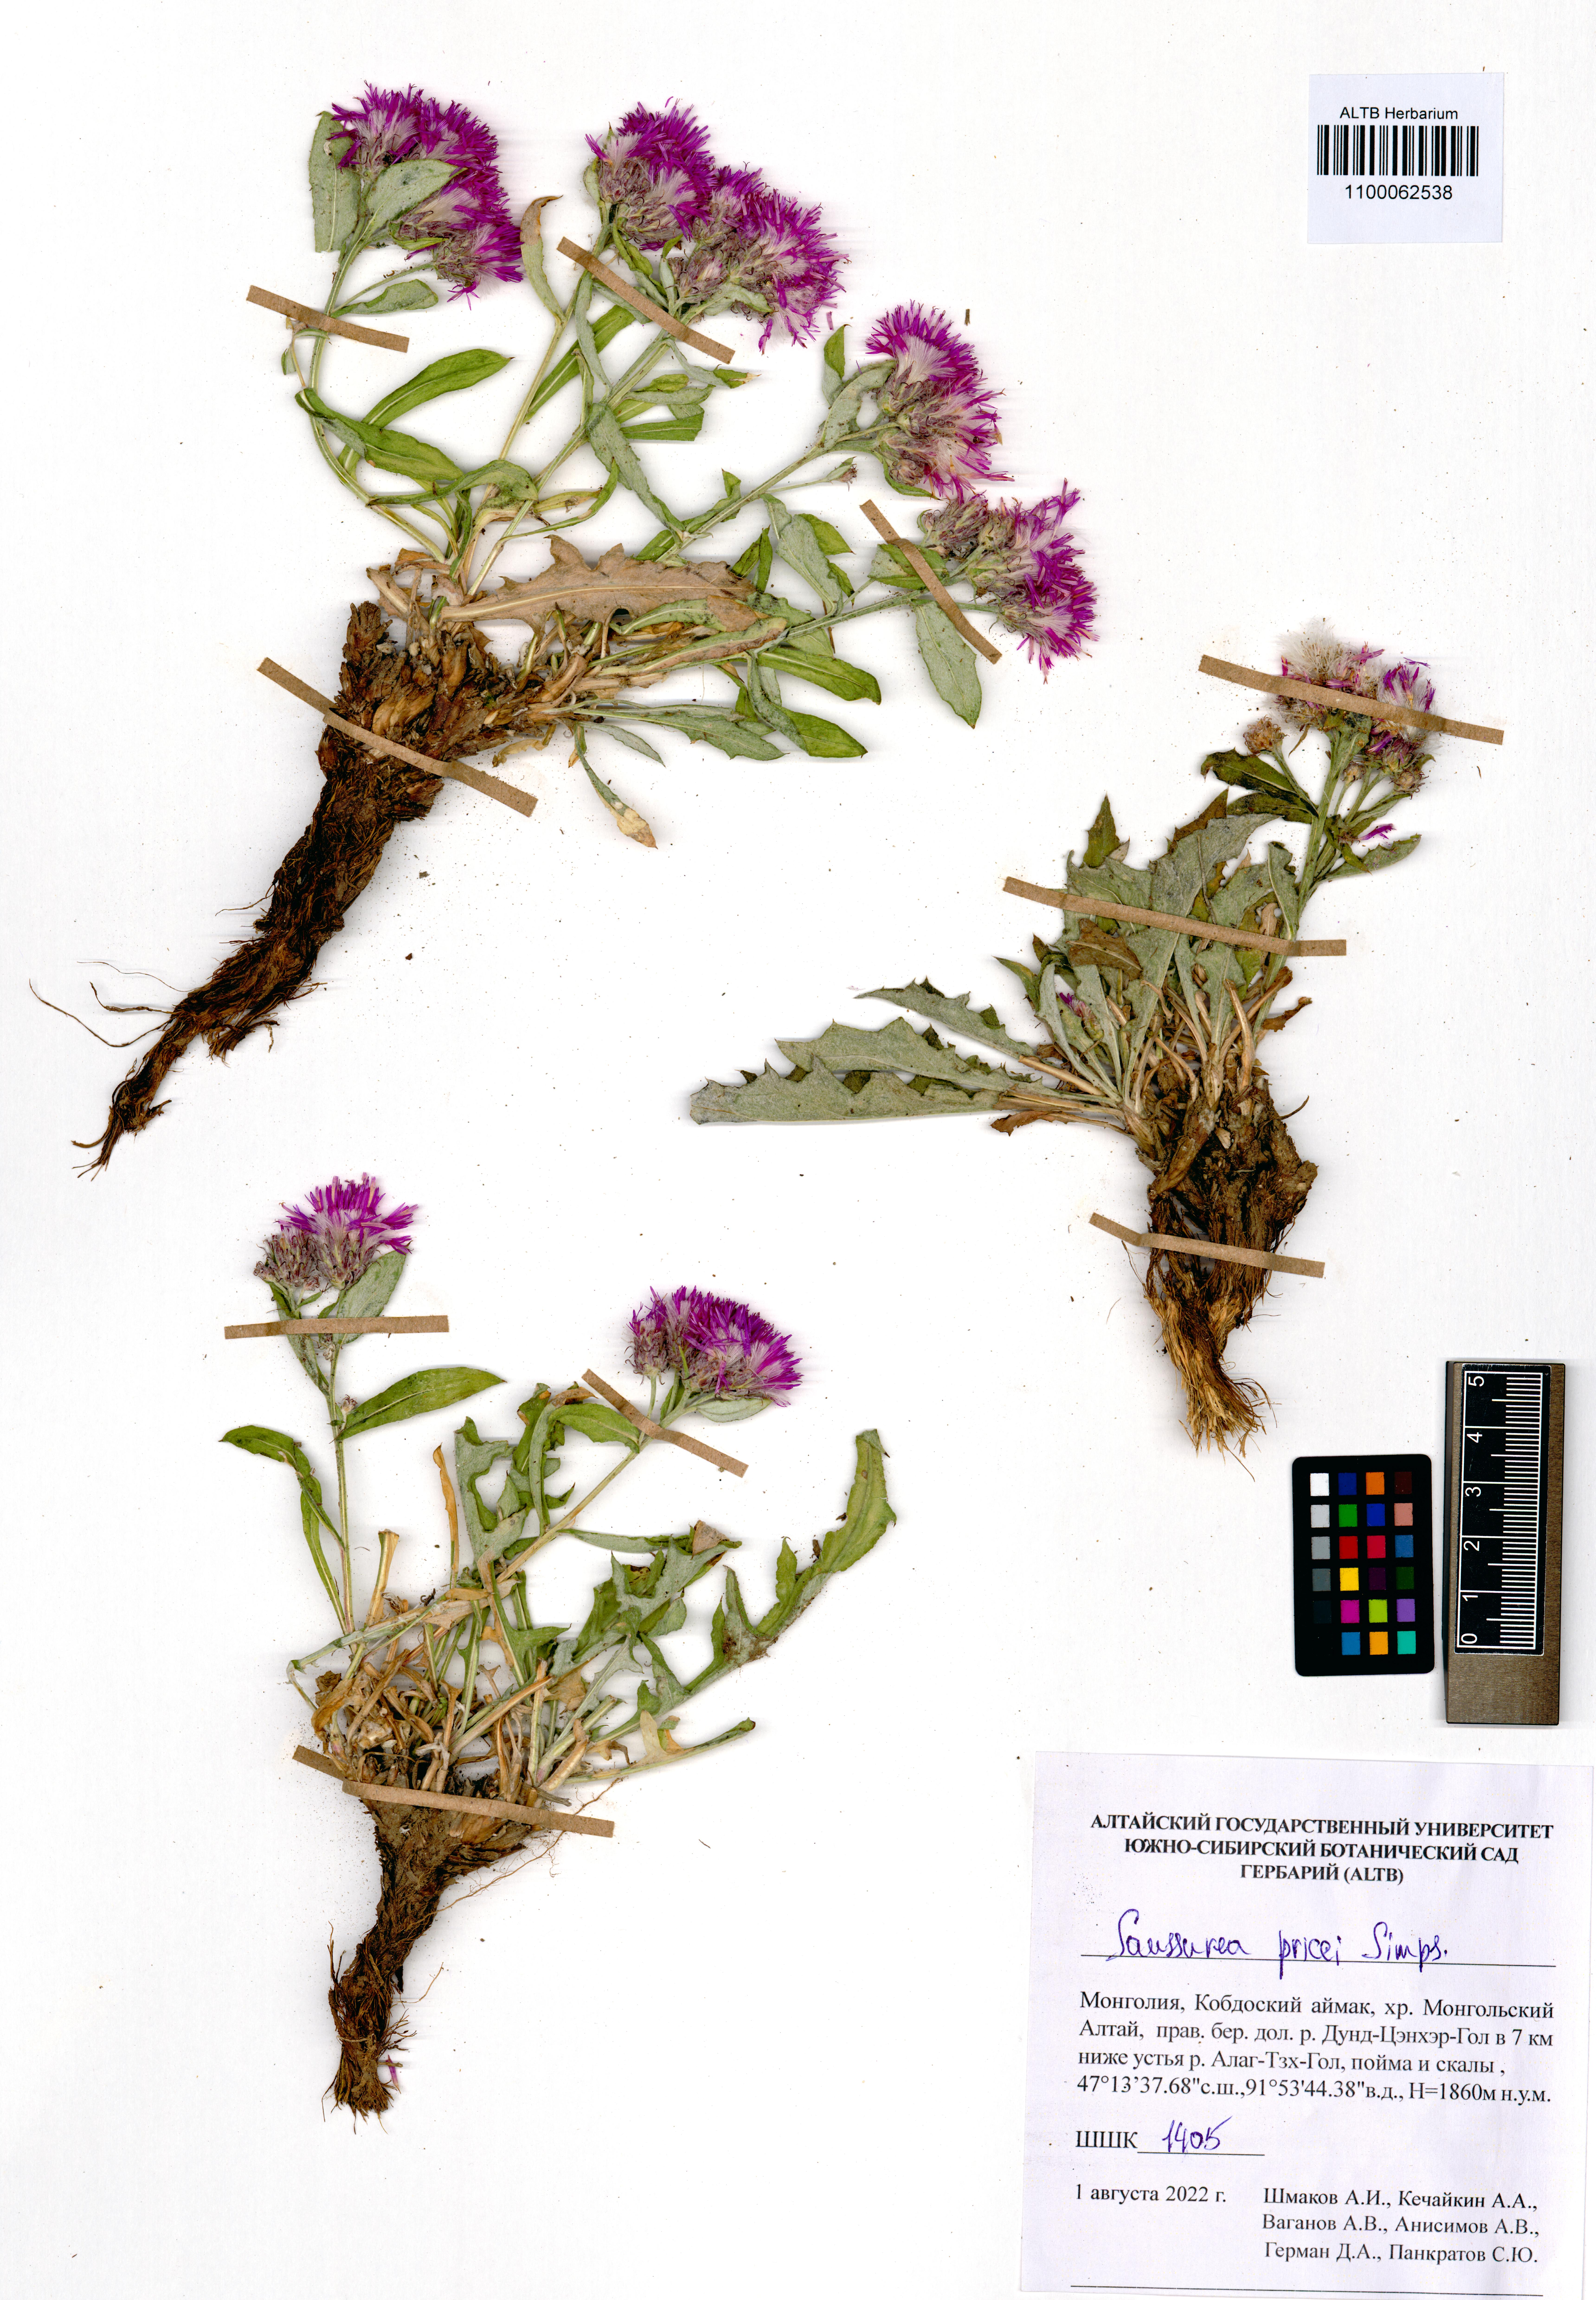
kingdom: Plantae
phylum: Tracheophyta
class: Magnoliopsida
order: Asterales
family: Asteraceae
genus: Saussurea
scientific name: Saussurea pricei
